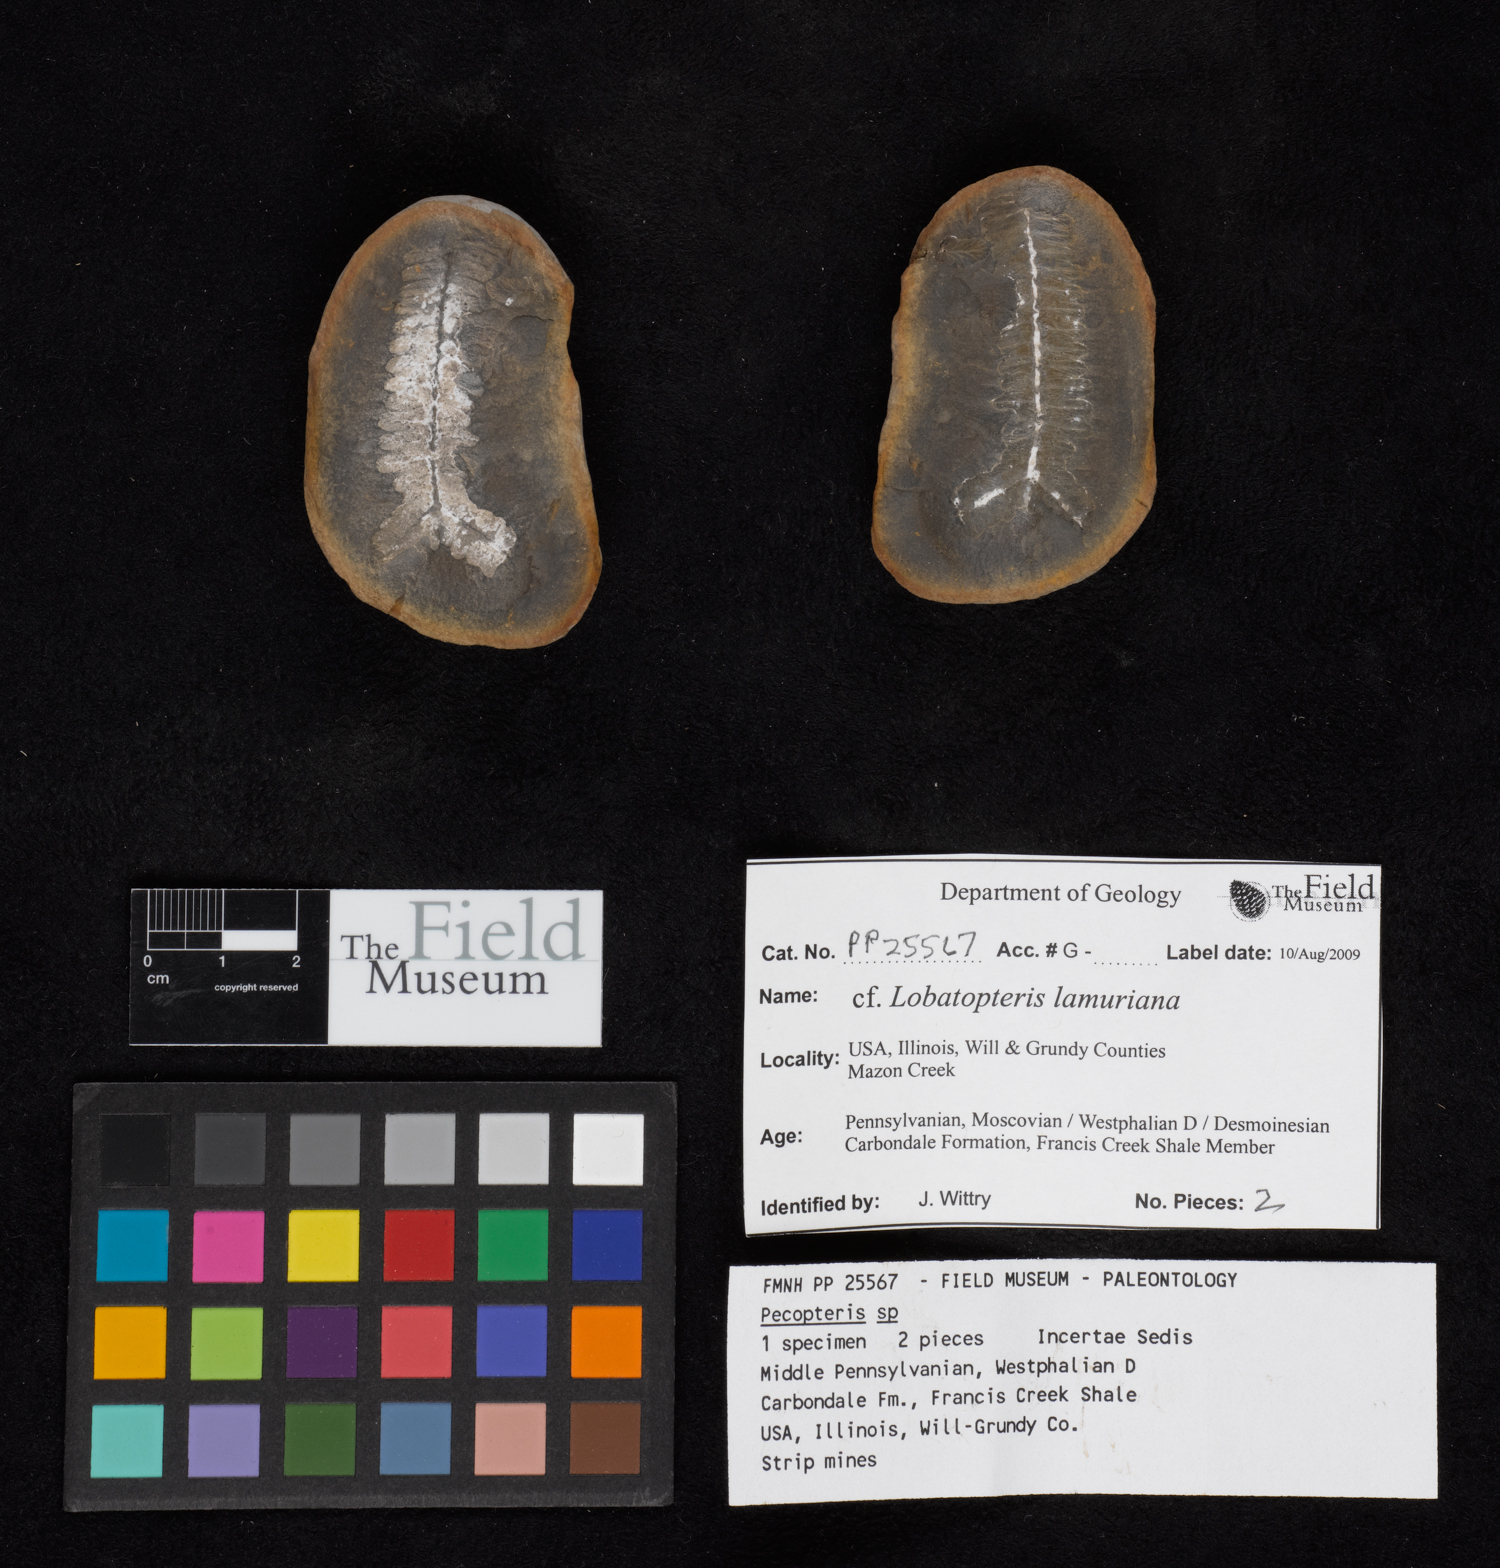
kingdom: Plantae
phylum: Tracheophyta
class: Polypodiopsida
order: Marattiales
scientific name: Marattiales
